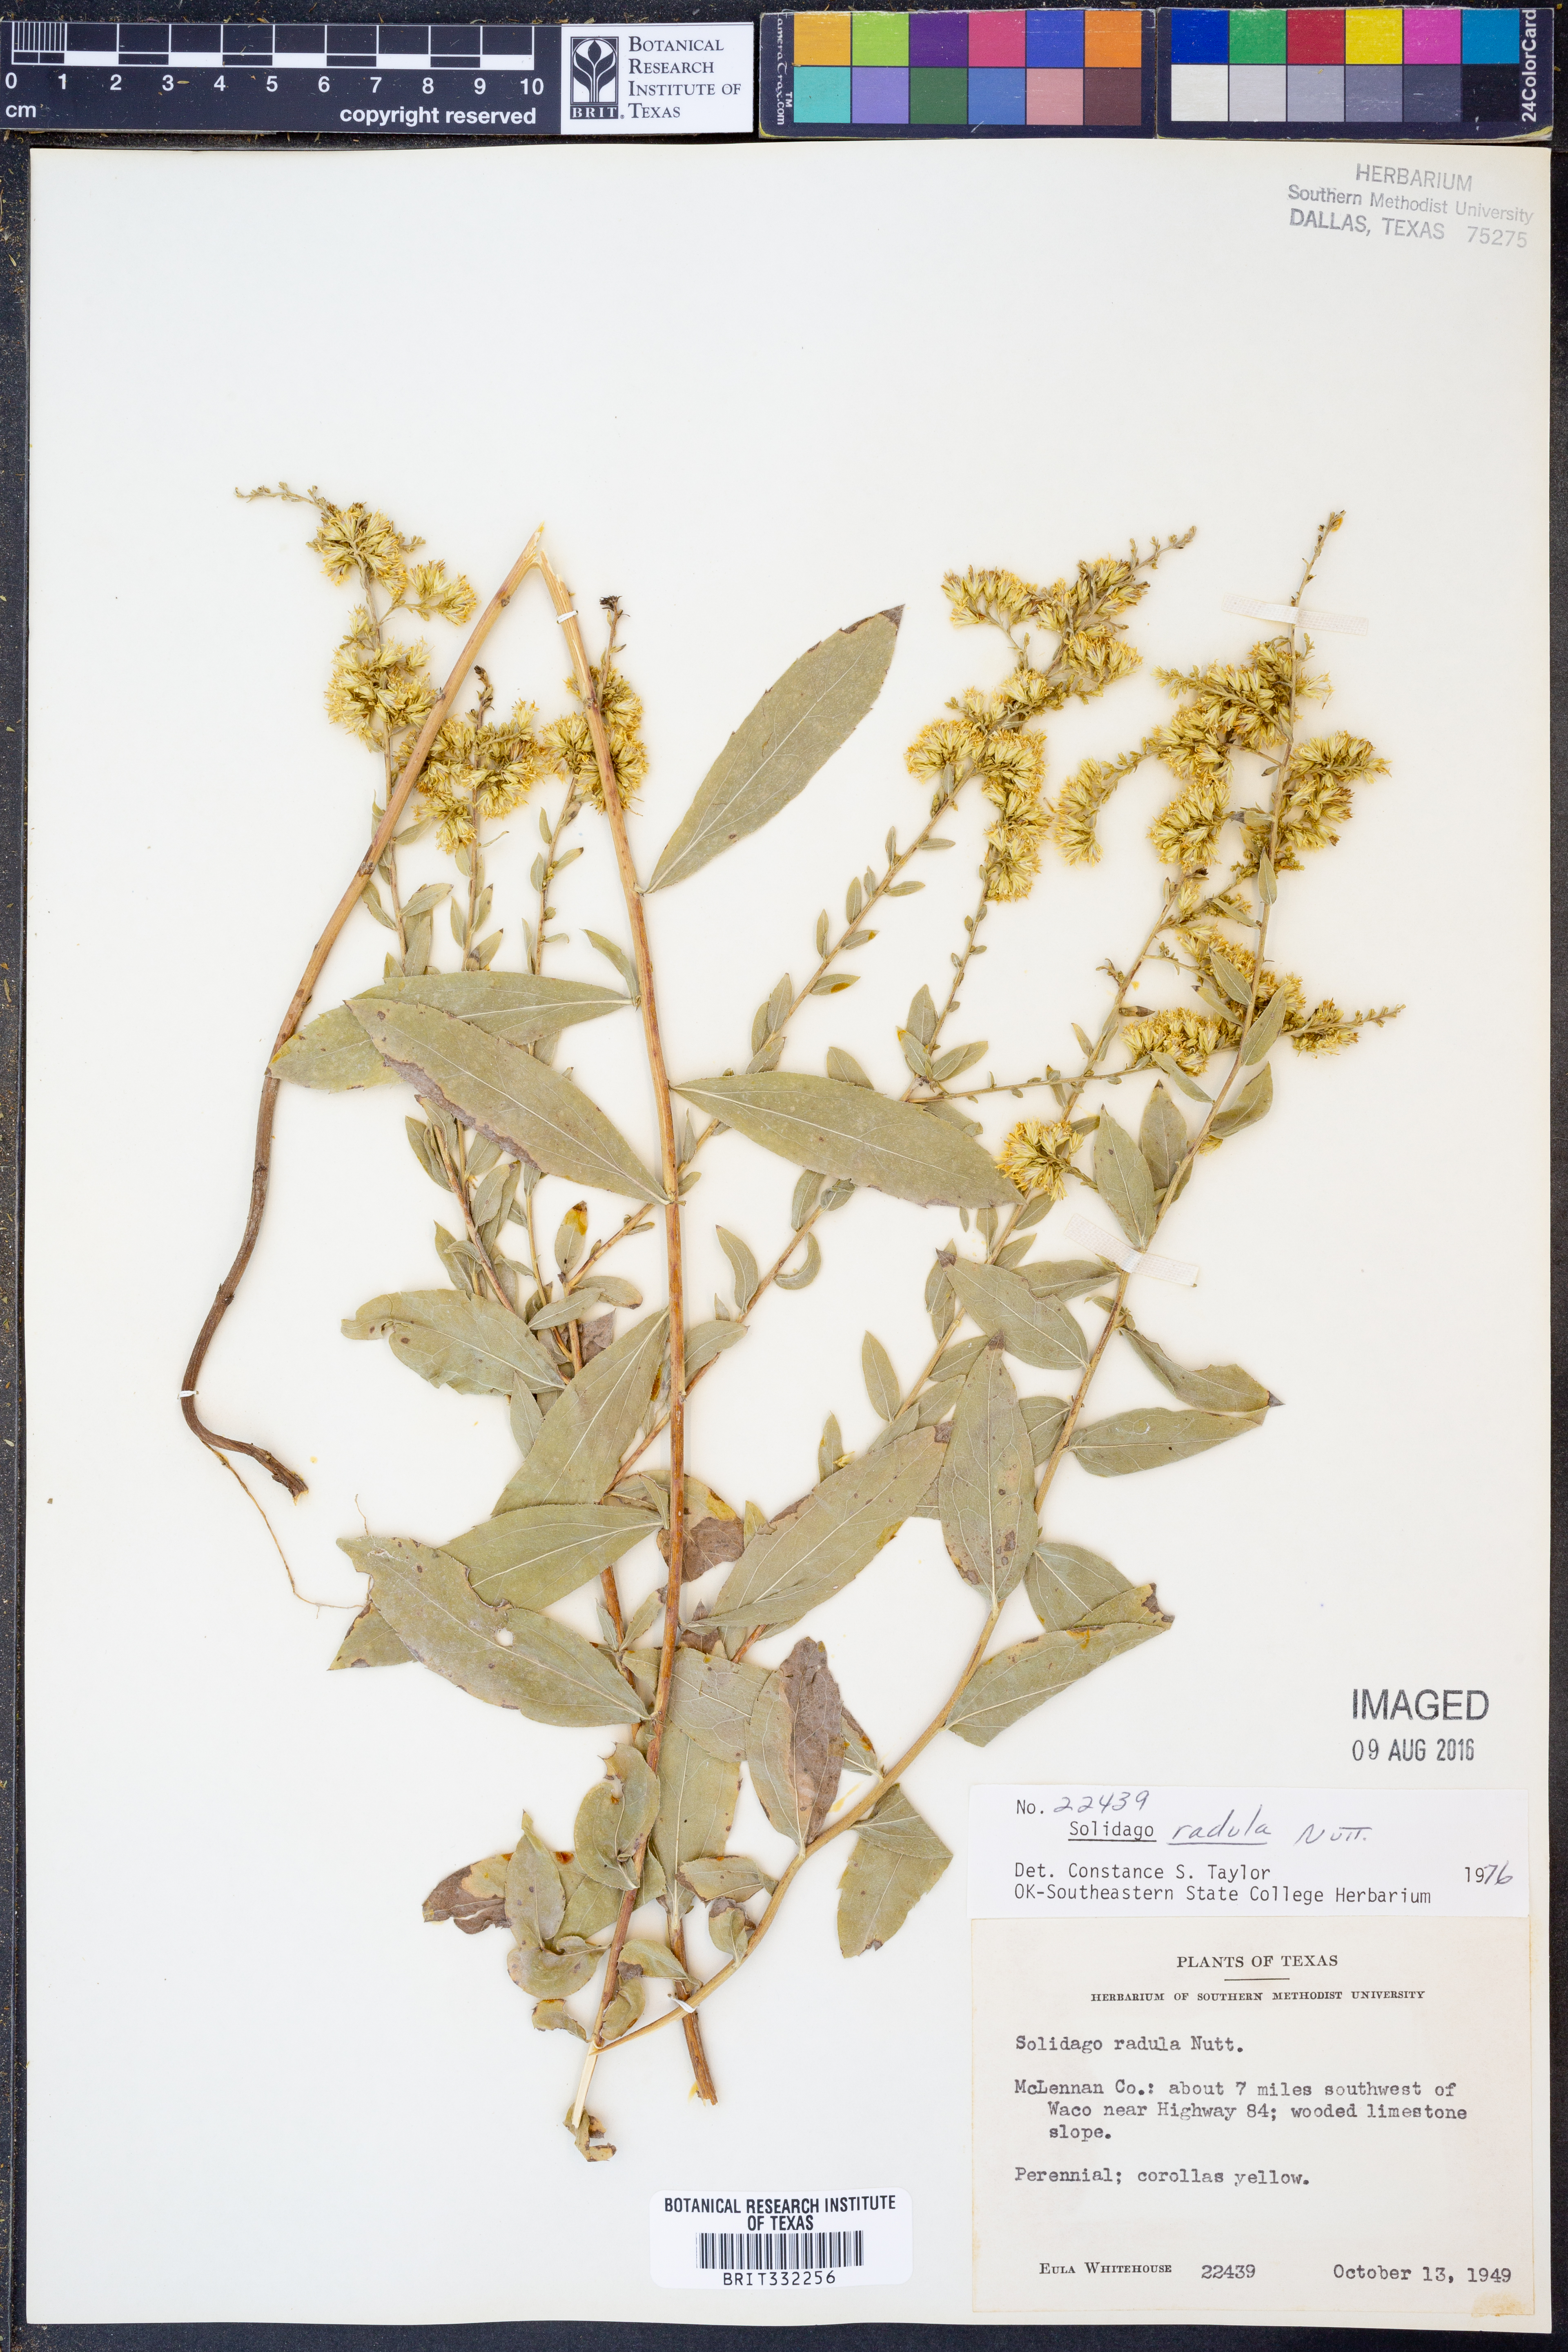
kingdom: Plantae
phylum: Tracheophyta
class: Magnoliopsida
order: Asterales
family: Asteraceae
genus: Solidago
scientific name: Solidago radula
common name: Western rough goldenrod
